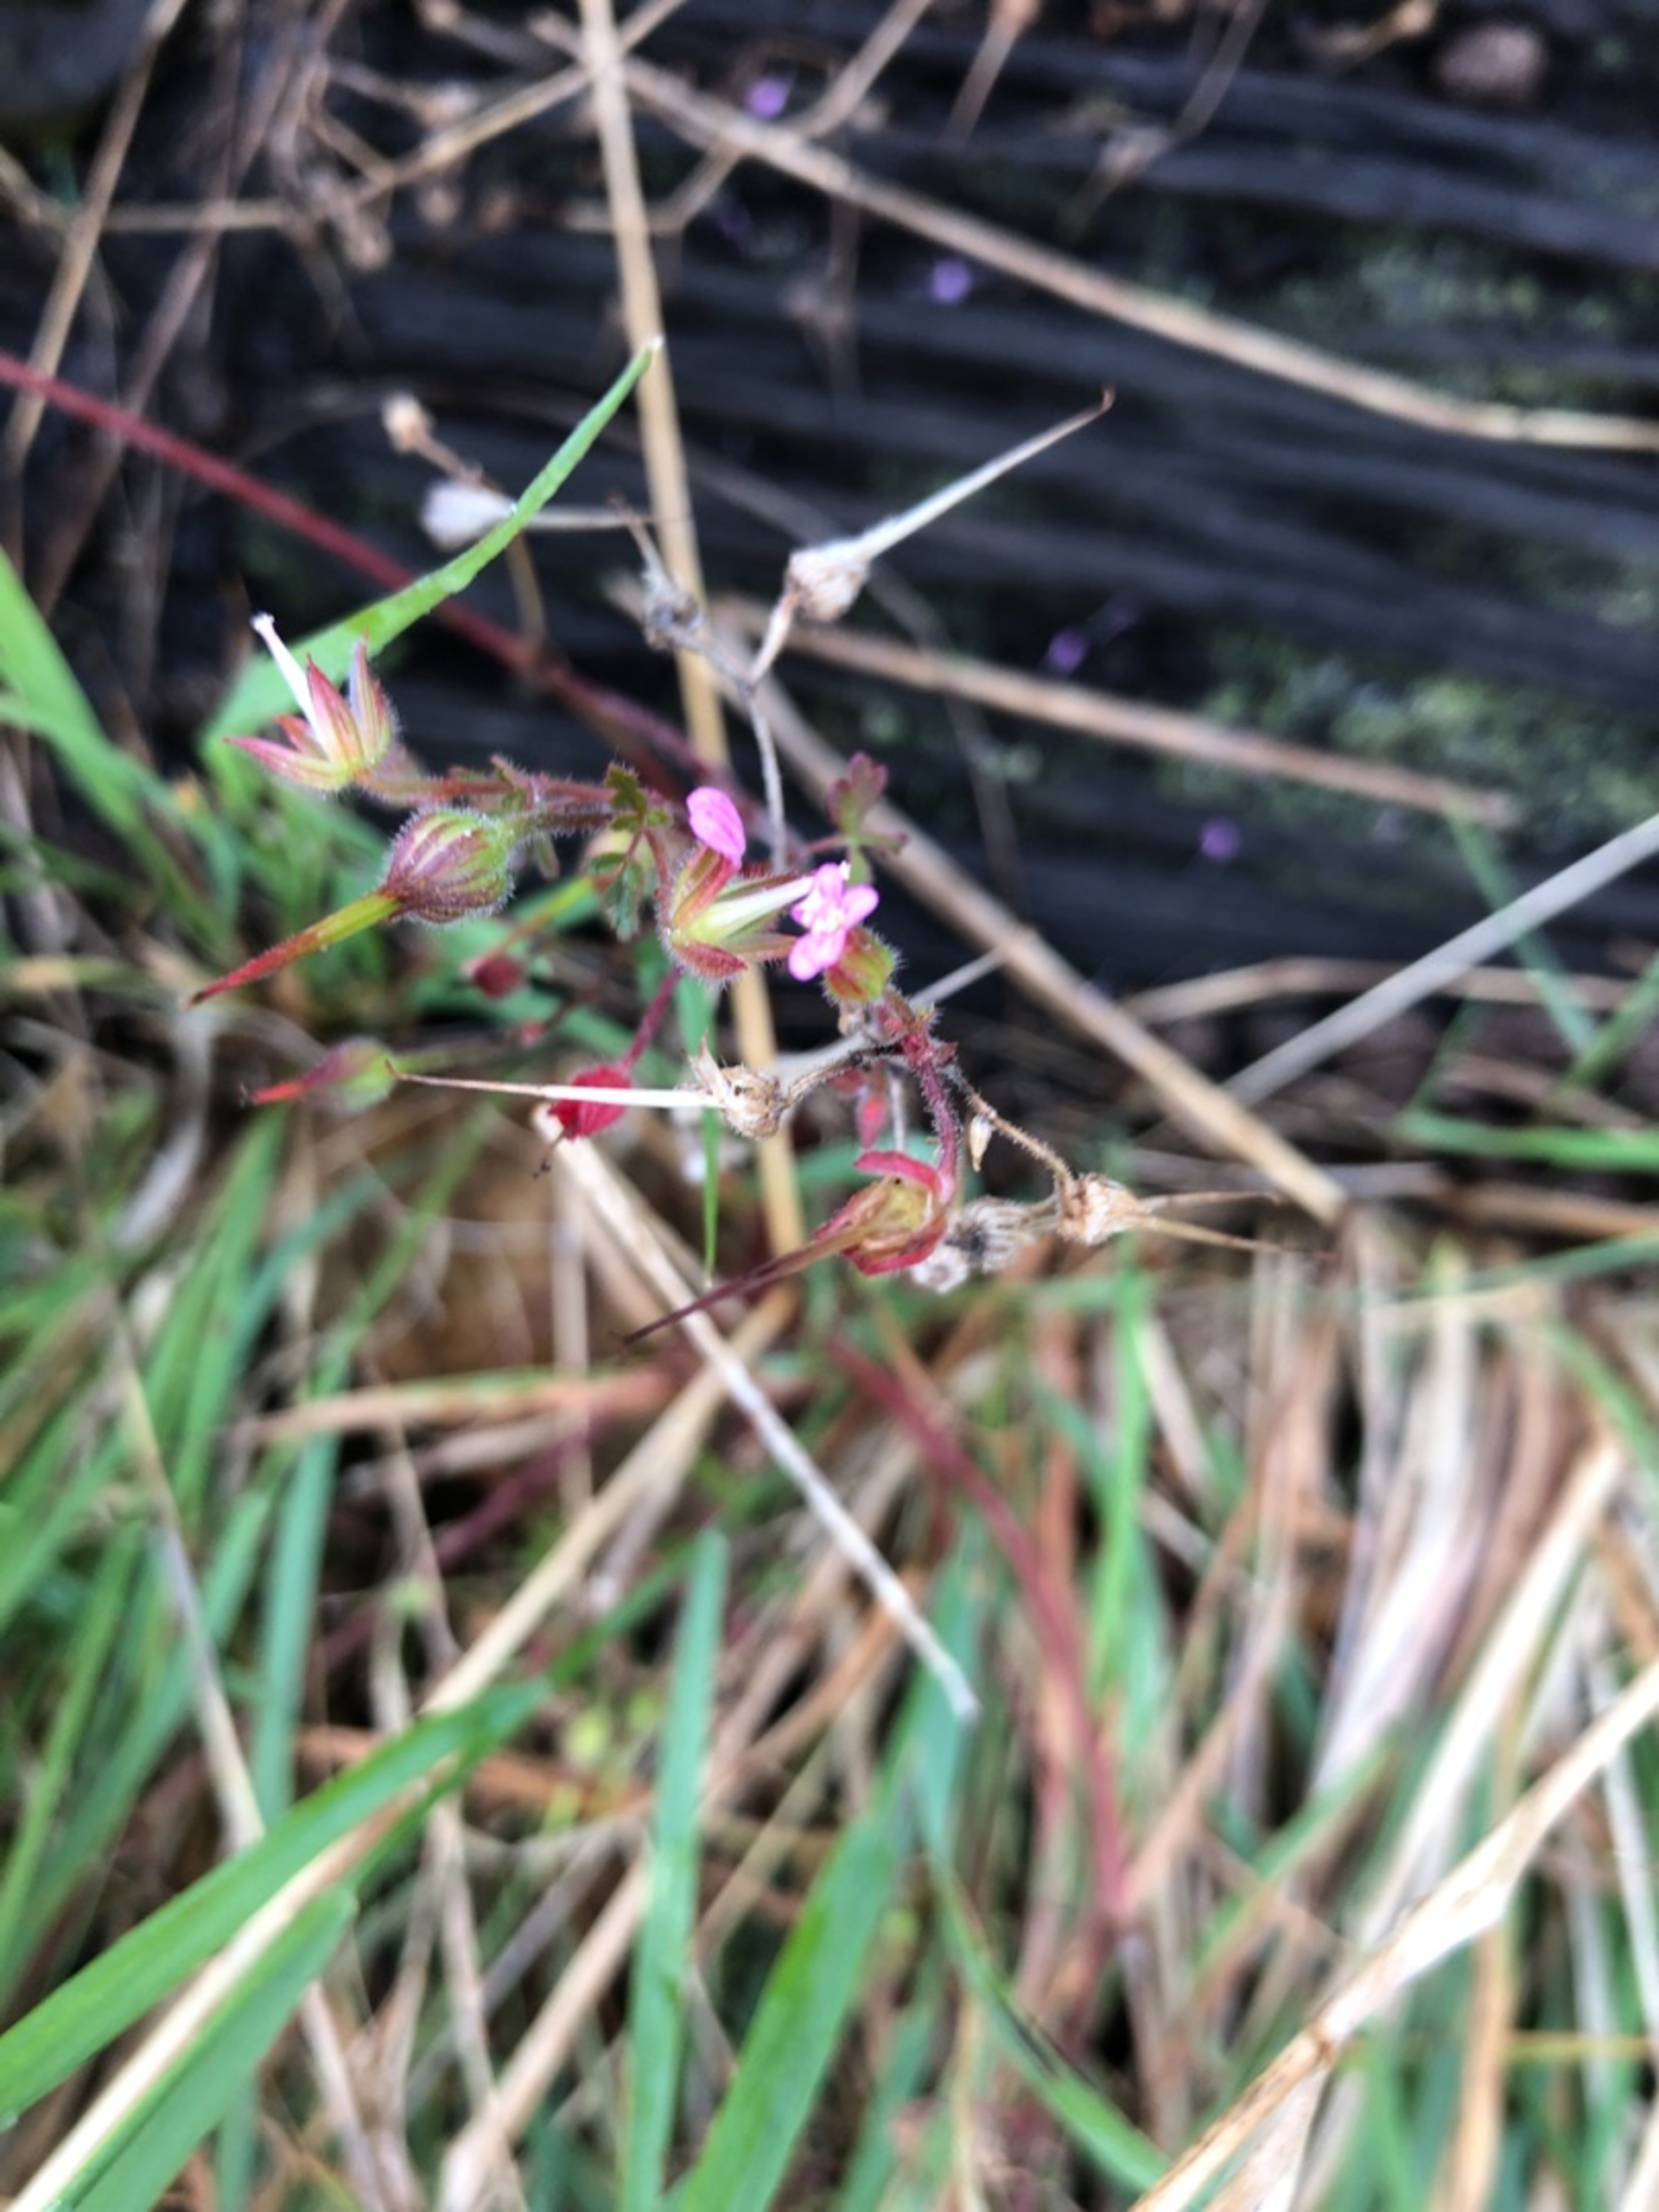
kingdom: Plantae
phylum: Tracheophyta
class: Magnoliopsida
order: Geraniales
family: Geraniaceae
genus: Geranium
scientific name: Geranium purpureum
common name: Purpur-storkenæb
